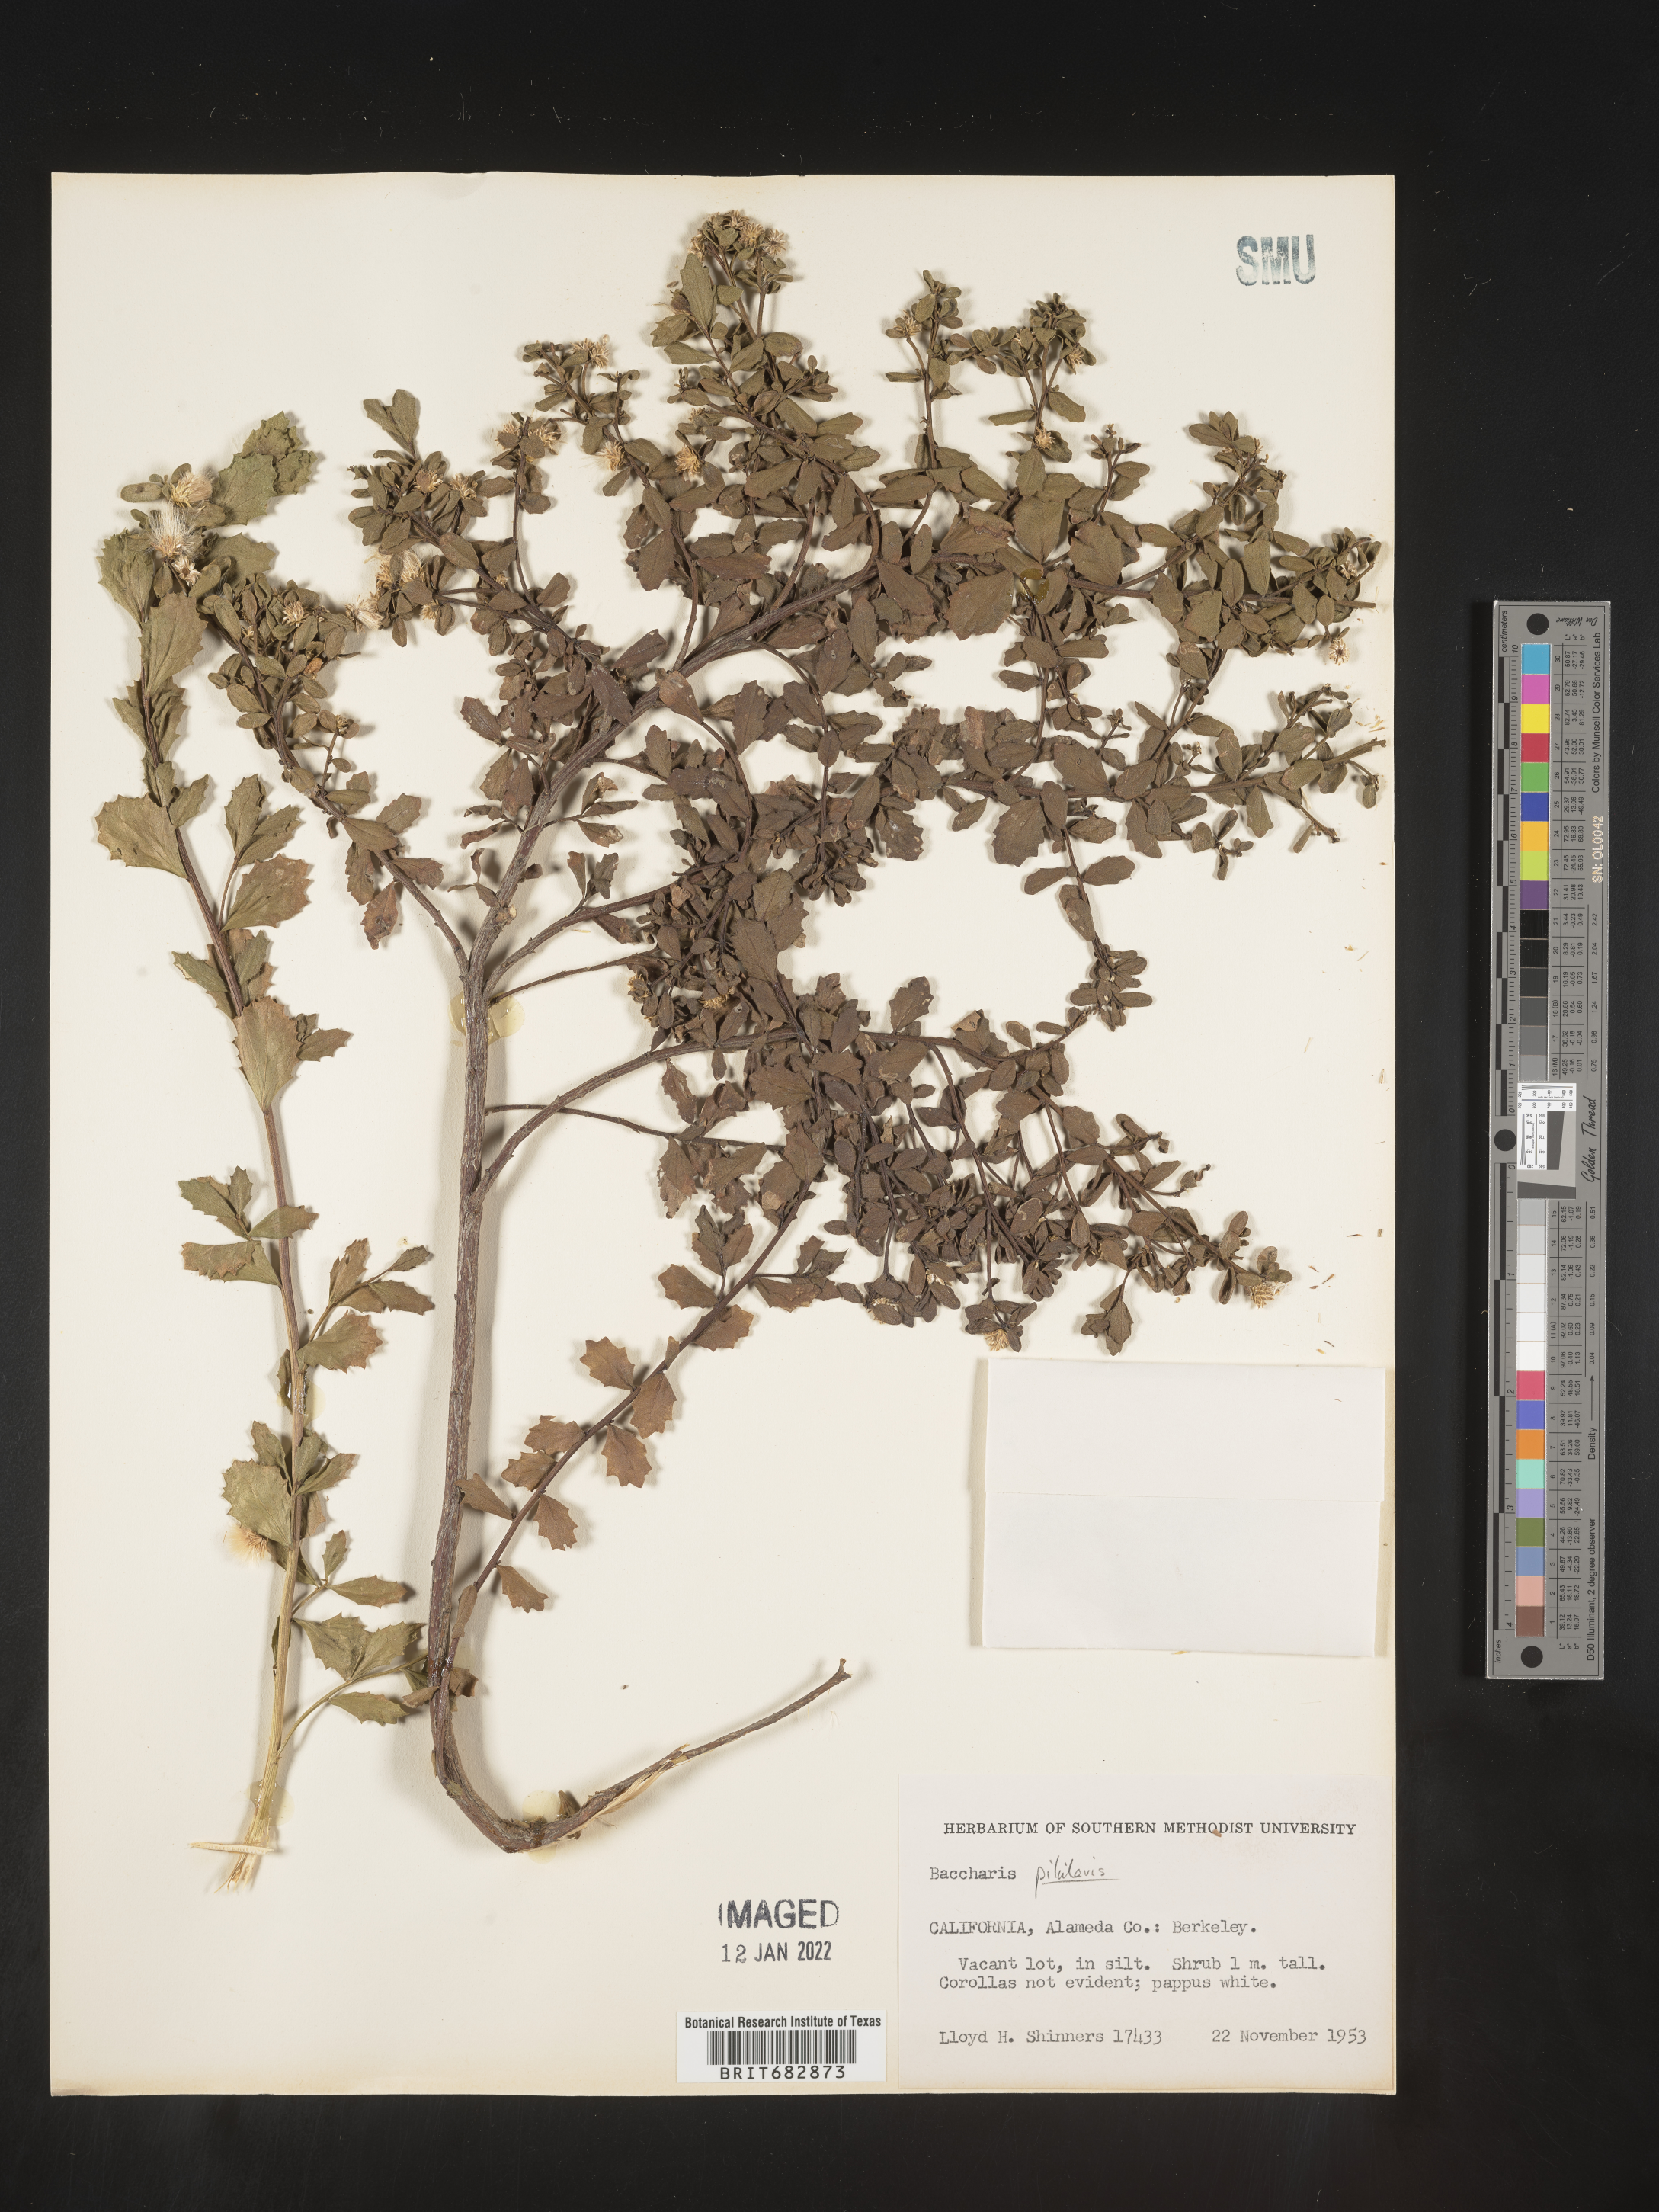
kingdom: Plantae
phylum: Tracheophyta
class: Magnoliopsida
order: Asterales
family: Asteraceae
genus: Baccharis
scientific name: Baccharis pilularis
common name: Coyotebrush
